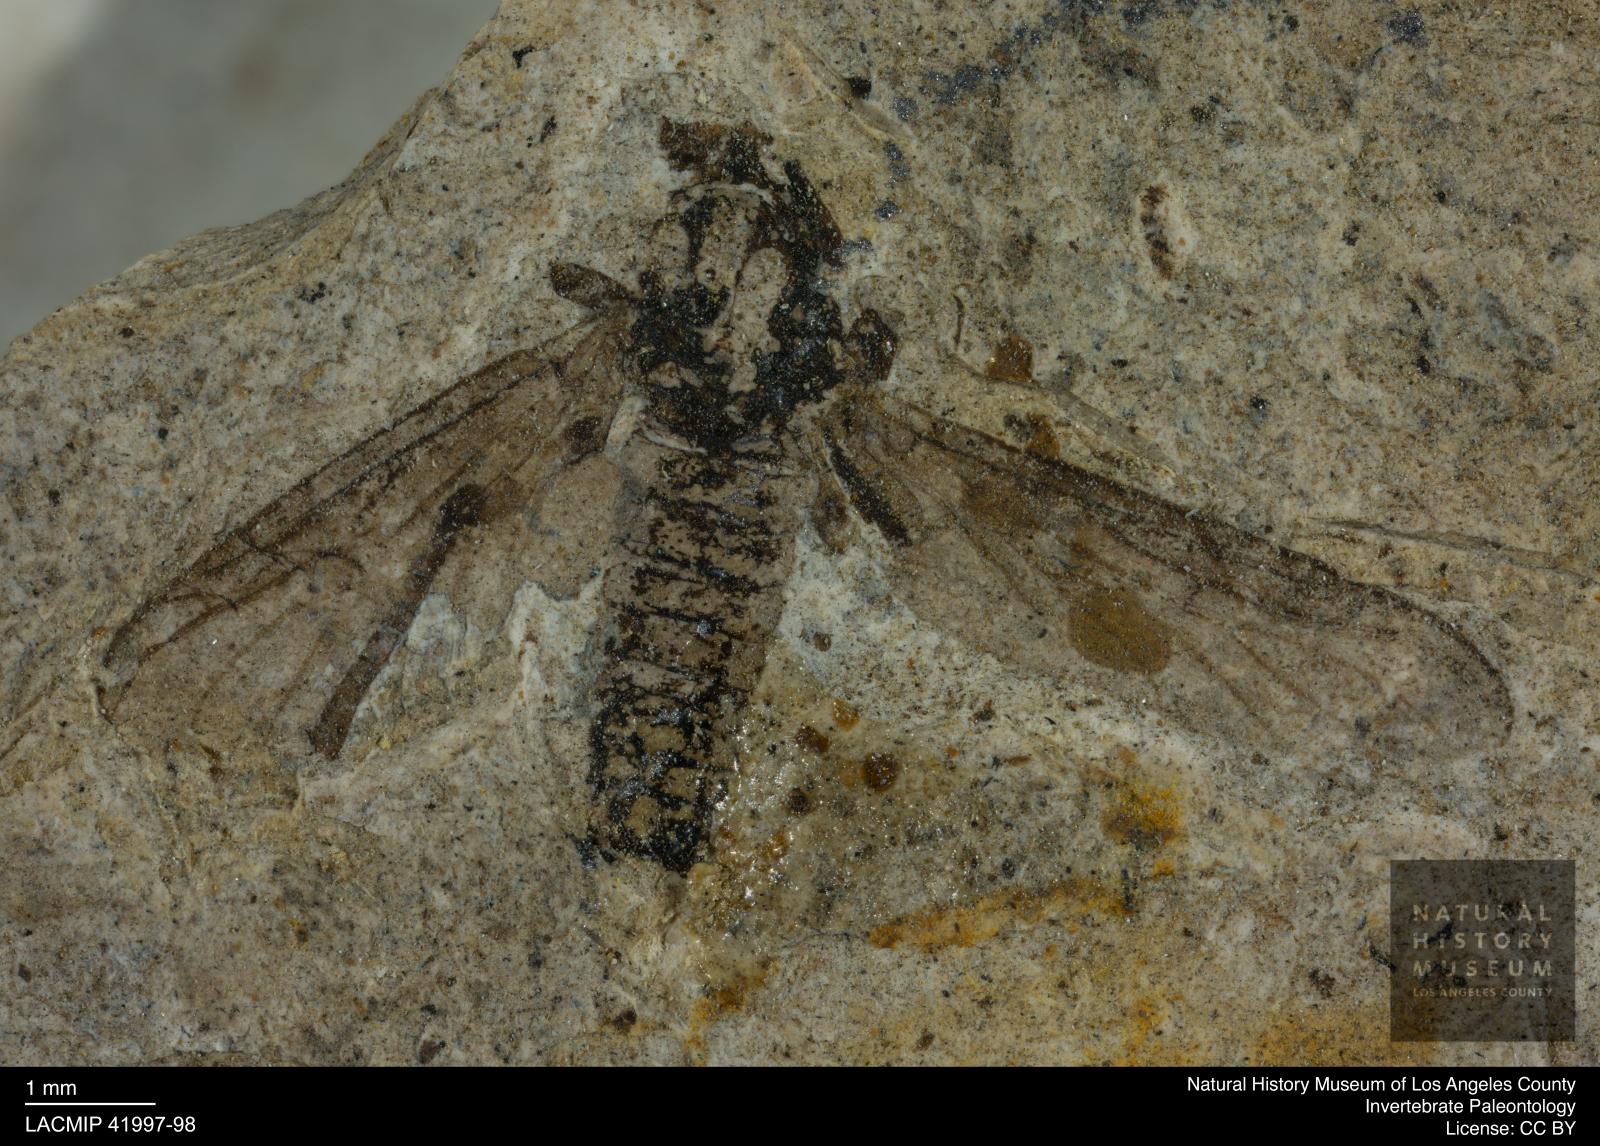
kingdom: Animalia
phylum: Arthropoda
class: Insecta
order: Diptera
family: Bibionidae
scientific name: Bibionidae
